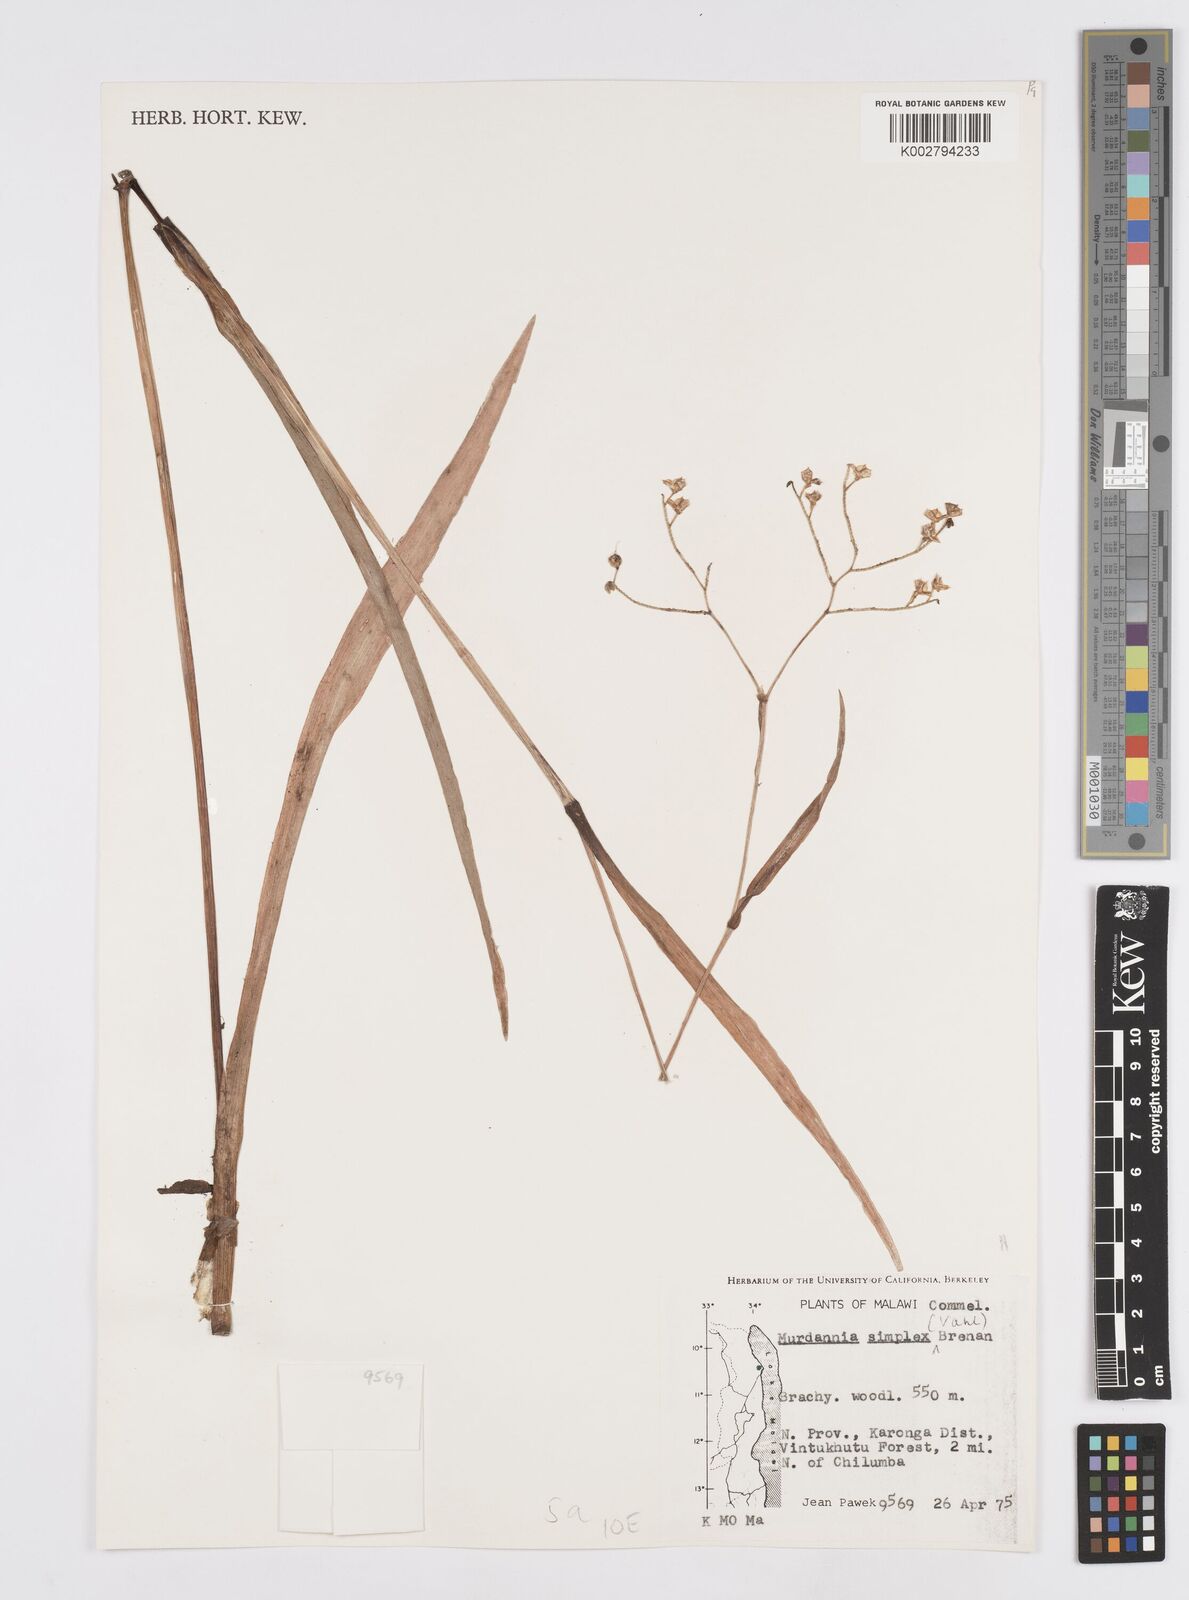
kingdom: Plantae
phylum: Tracheophyta
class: Liliopsida
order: Commelinales
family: Commelinaceae
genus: Murdannia
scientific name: Murdannia simplex
